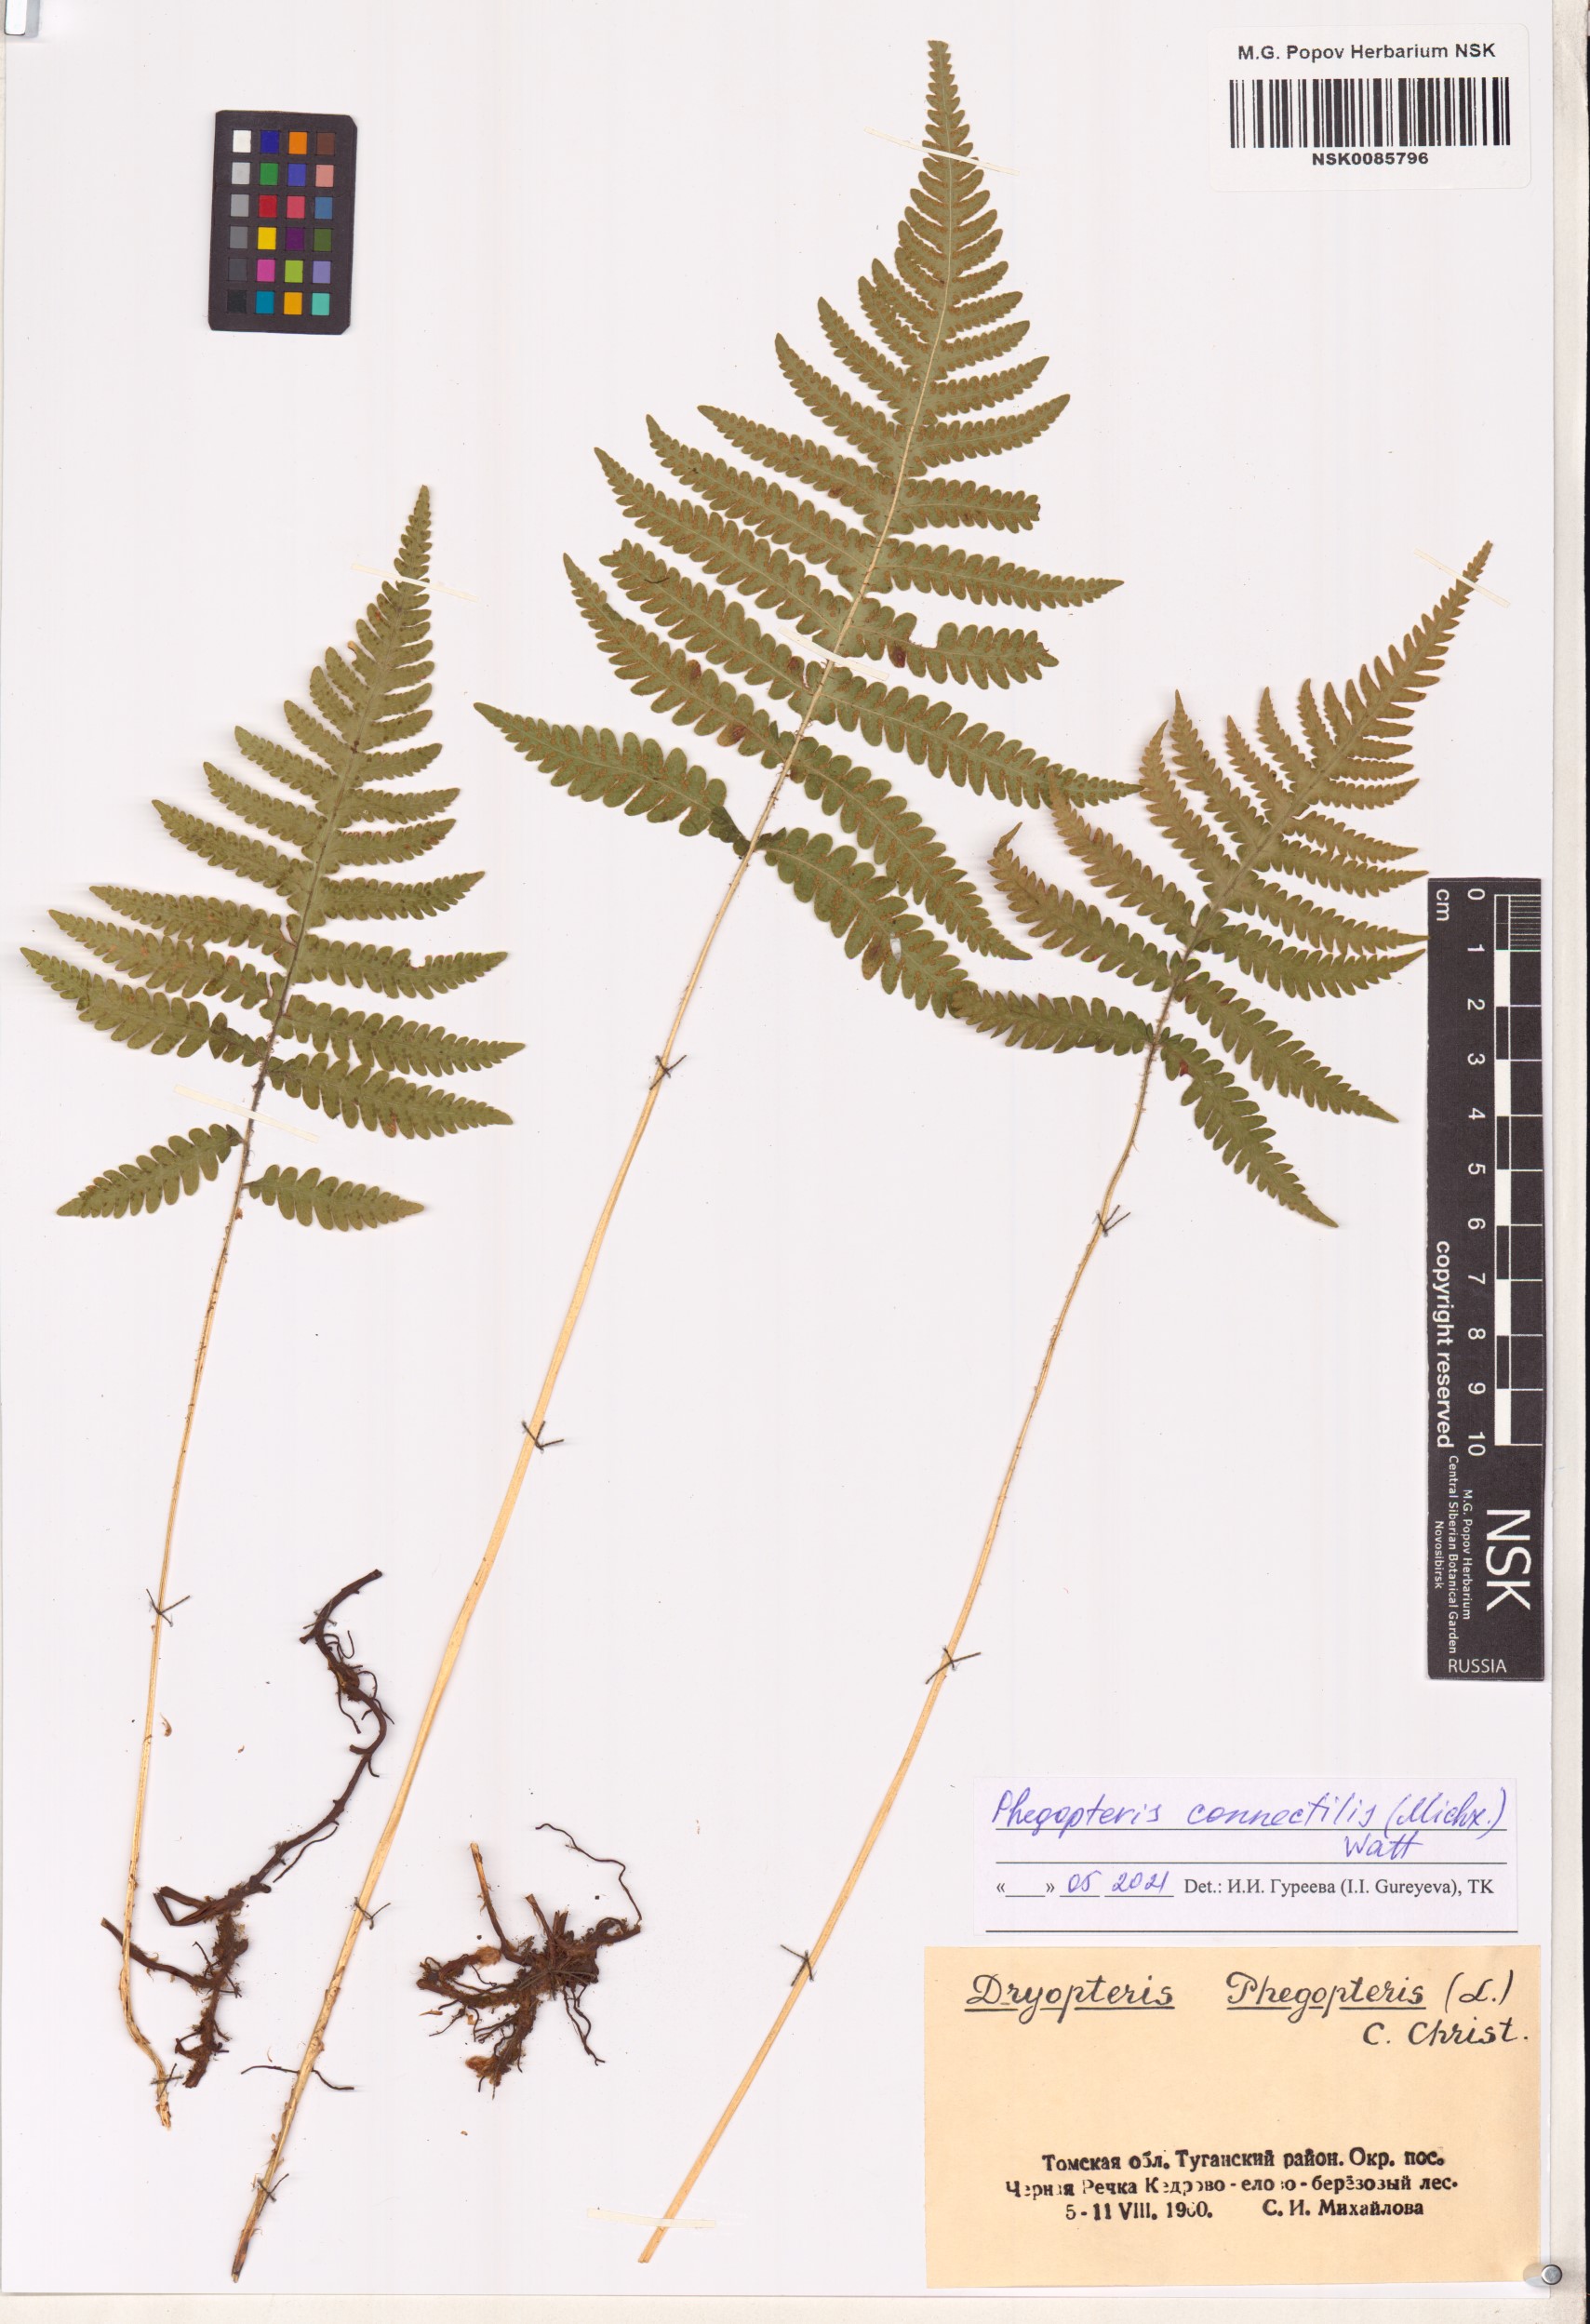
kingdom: Plantae
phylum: Tracheophyta
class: Polypodiopsida
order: Polypodiales
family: Thelypteridaceae
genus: Phegopteris
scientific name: Phegopteris connectilis
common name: Beech fern
